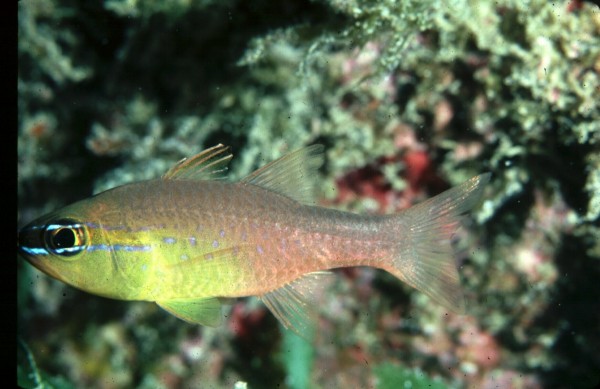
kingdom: Animalia
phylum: Chordata
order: Perciformes
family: Apogonidae
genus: Ostorhinchus
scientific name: Ostorhinchus apogonoides
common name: Goldbelly cardinalfish
